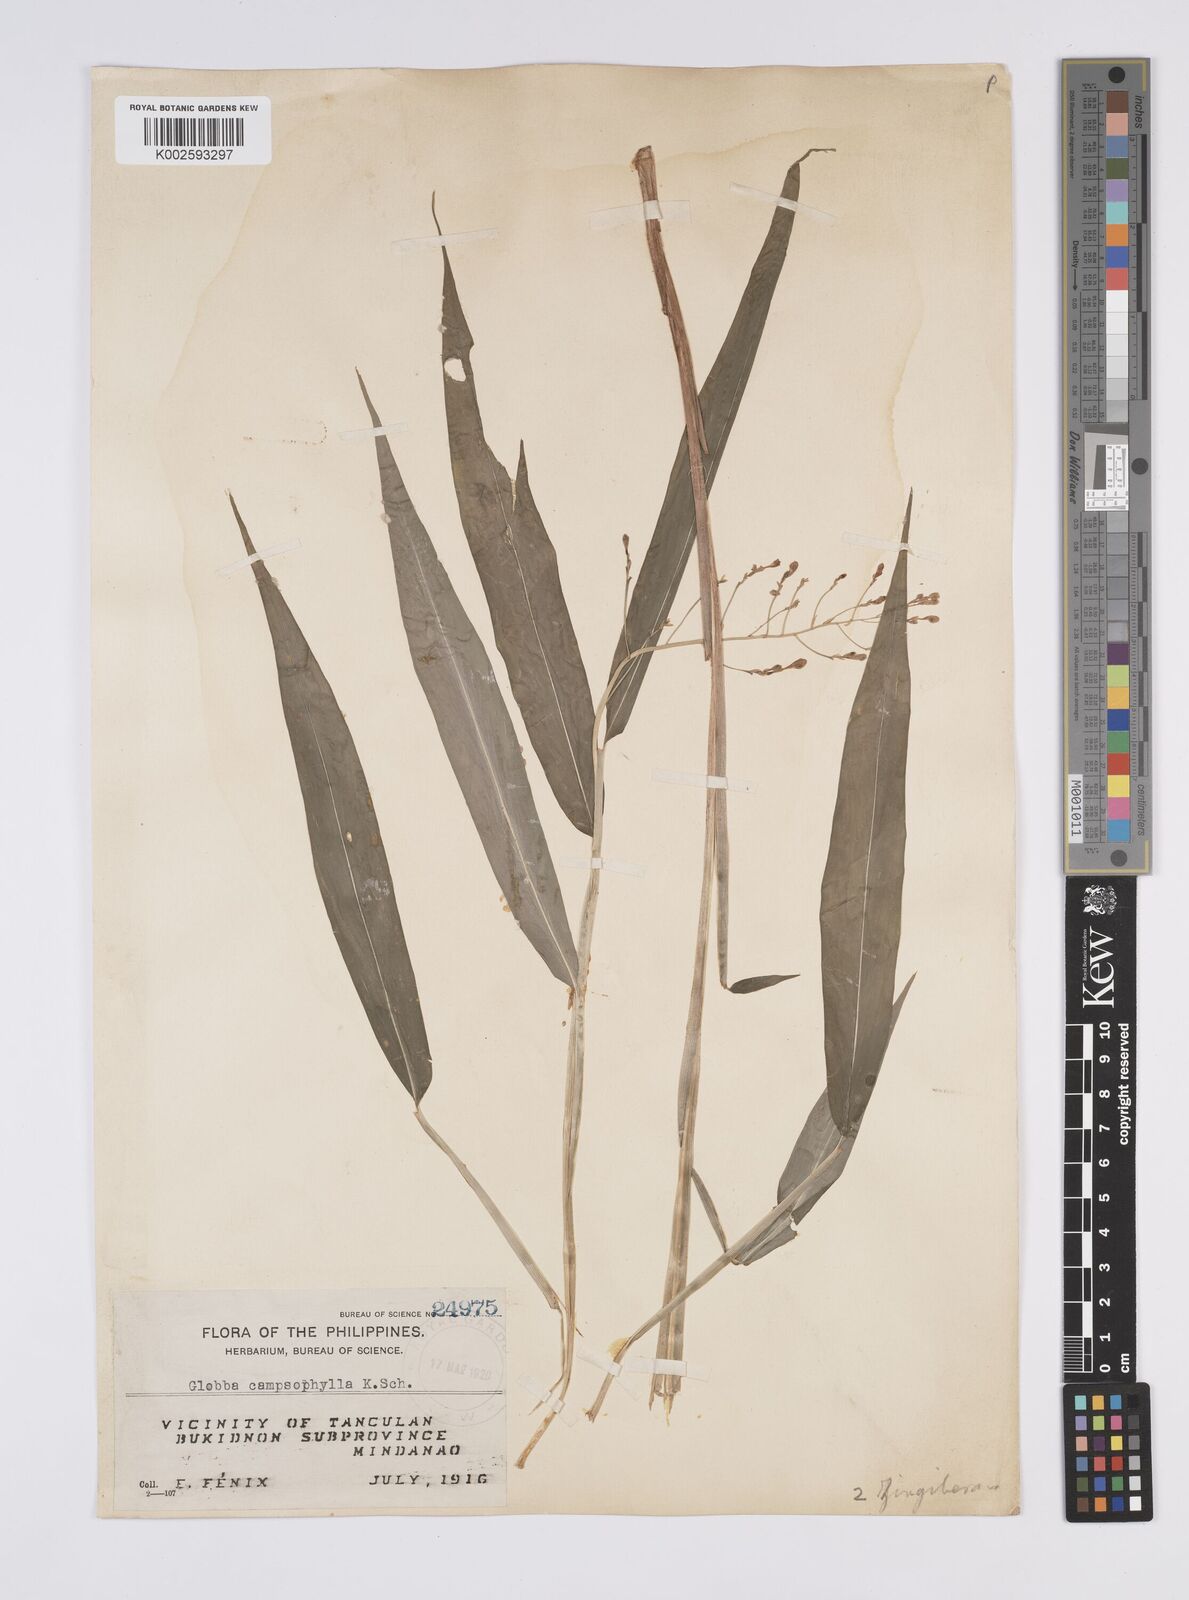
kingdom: Plantae
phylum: Tracheophyta
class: Liliopsida
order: Zingiberales
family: Zingiberaceae
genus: Globba
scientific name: Globba campsophylla
